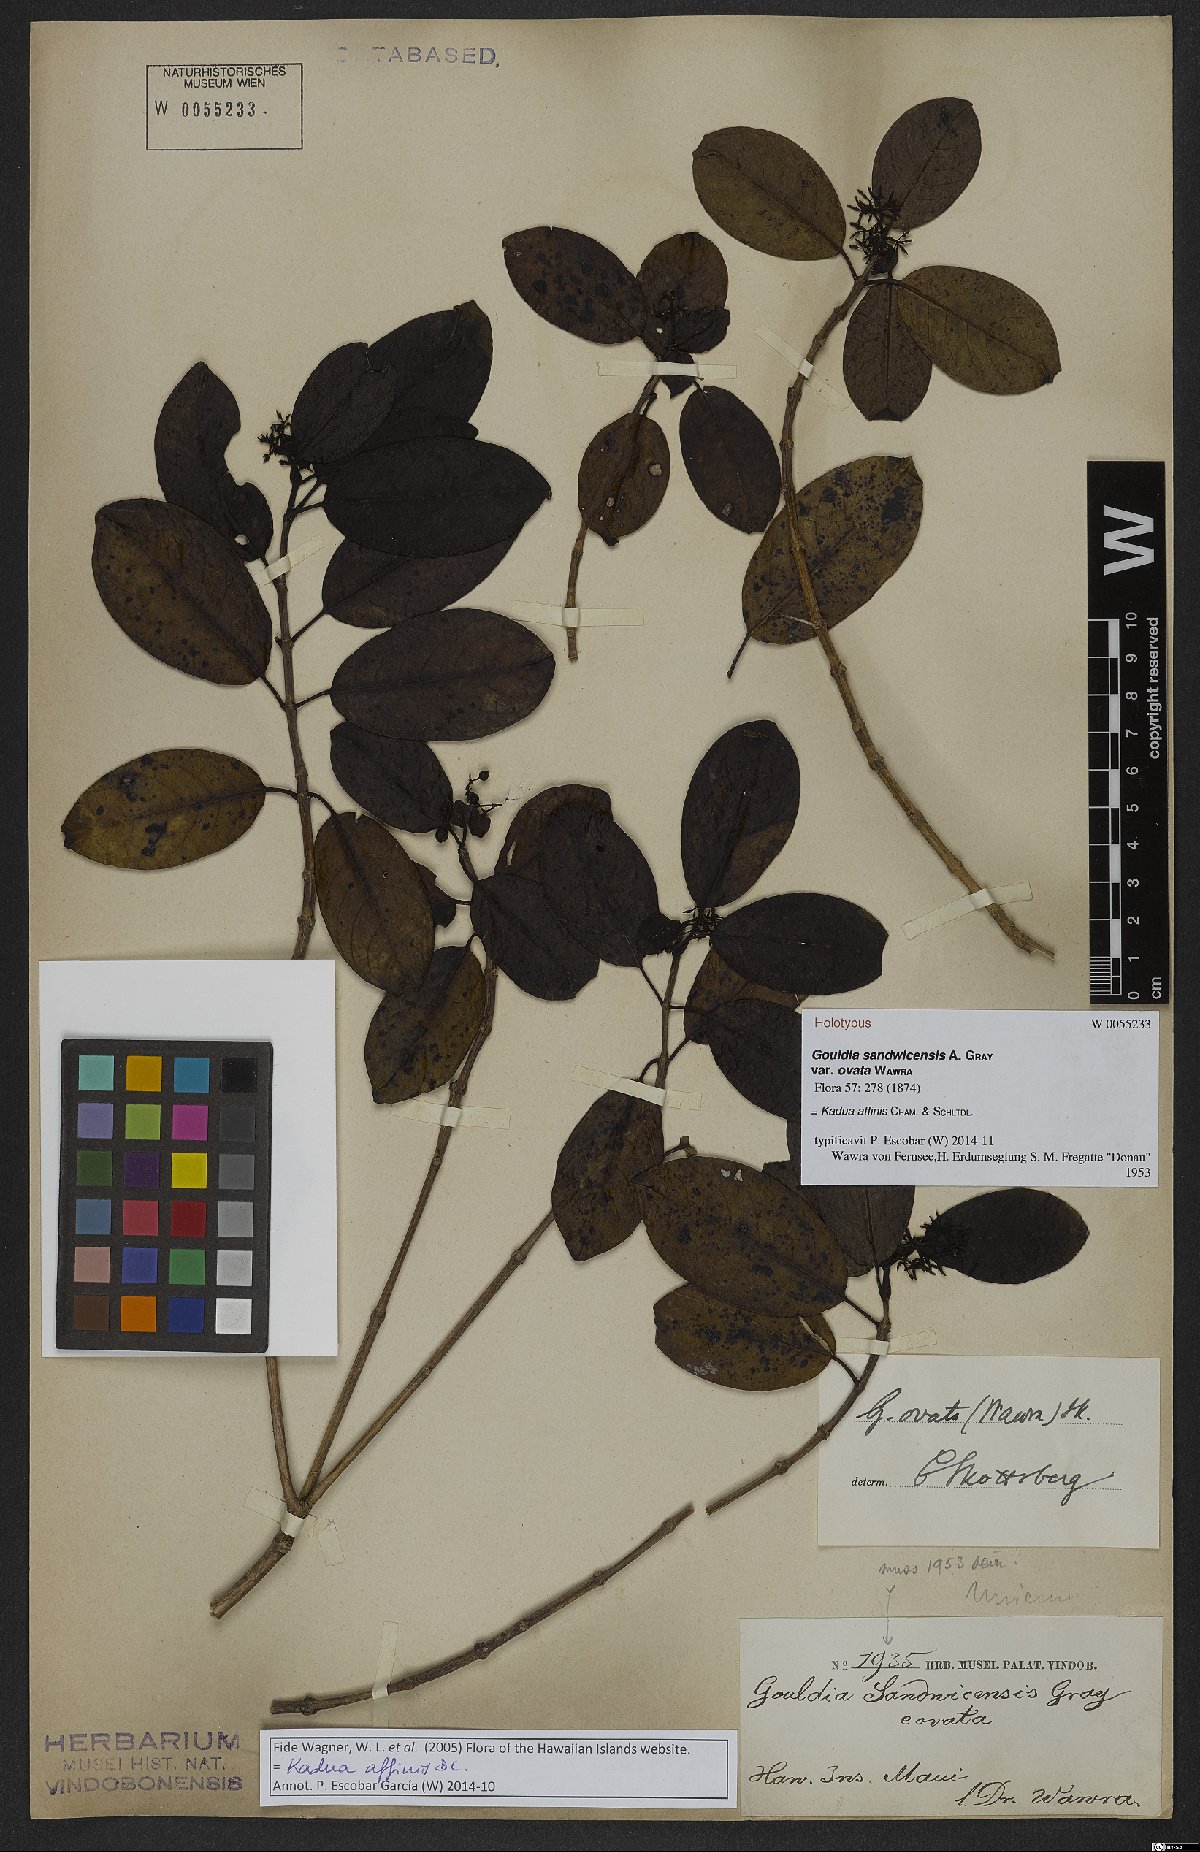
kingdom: Plantae
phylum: Tracheophyta
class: Magnoliopsida
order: Gentianales
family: Rubiaceae
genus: Kadua
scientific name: Kadua affinis
